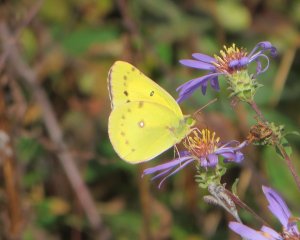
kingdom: Animalia
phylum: Arthropoda
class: Insecta
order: Lepidoptera
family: Pieridae
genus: Colias
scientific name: Colias eurytheme
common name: Orange Sulphur
